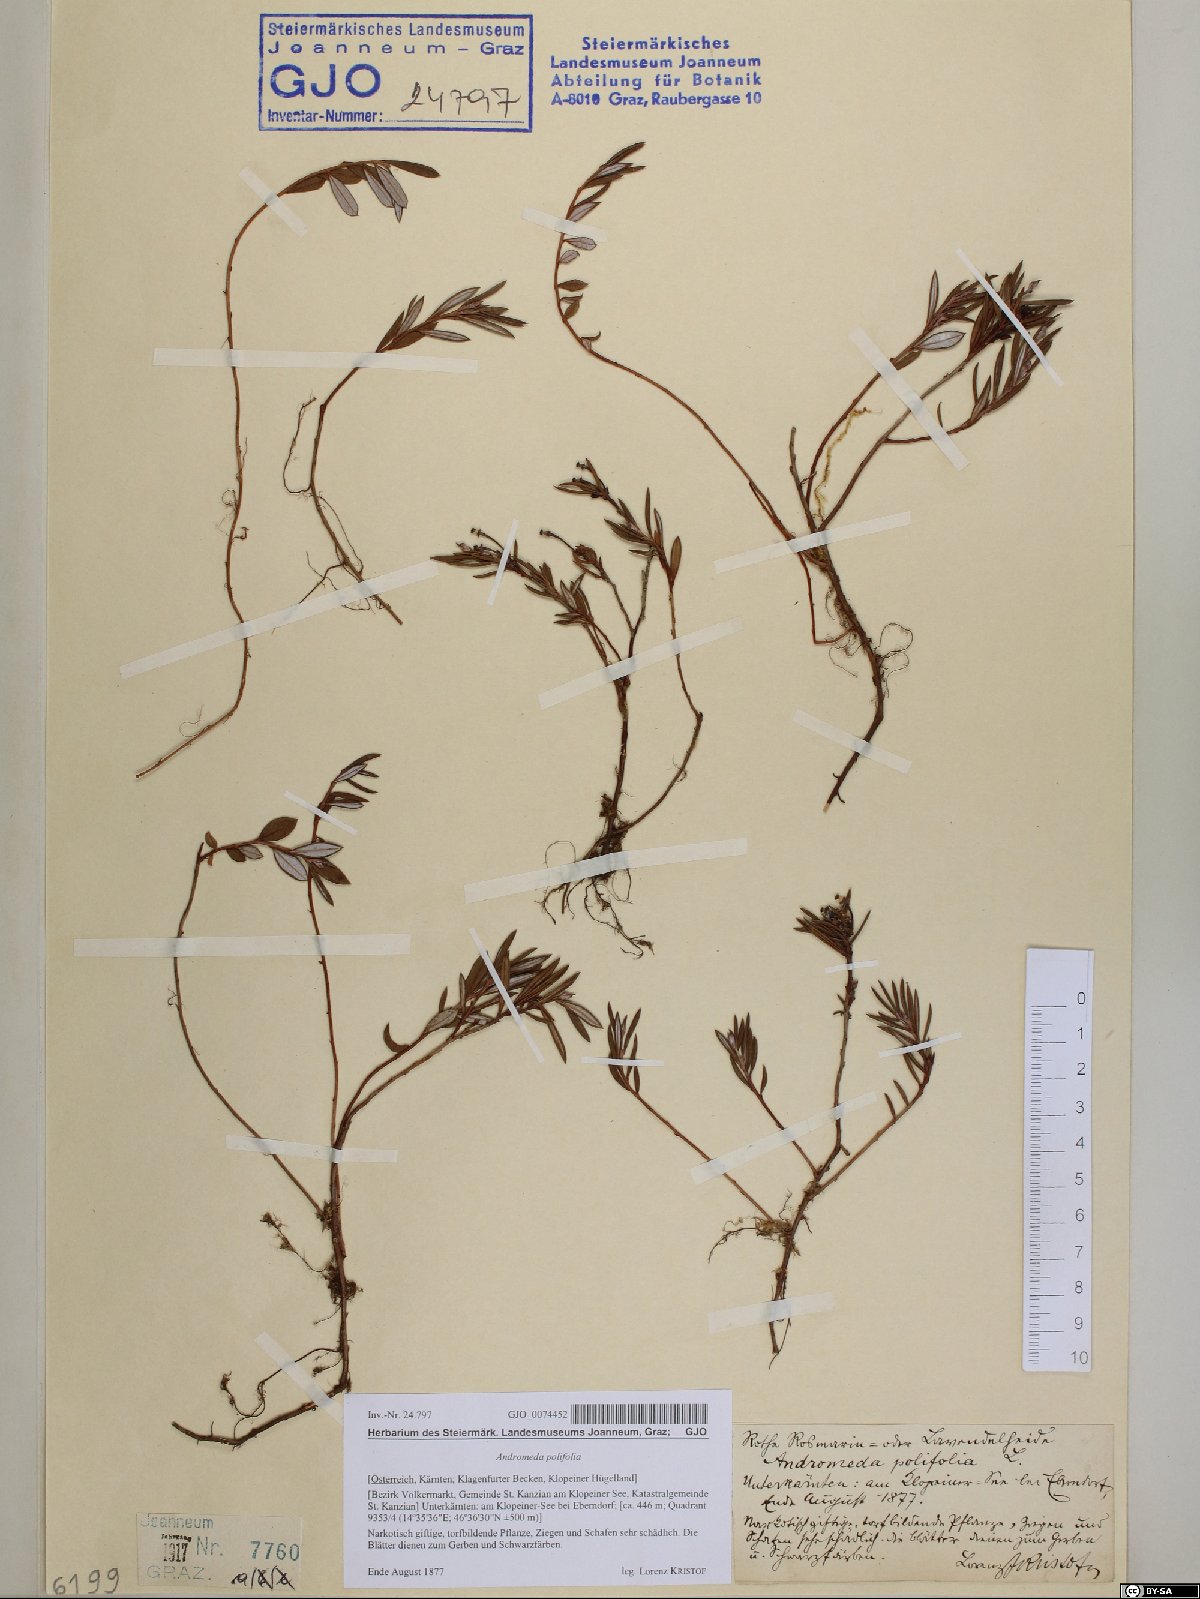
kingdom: Plantae
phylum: Tracheophyta
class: Magnoliopsida
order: Ericales
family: Ericaceae
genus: Andromeda
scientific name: Andromeda polifolia
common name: Bog-rosemary
